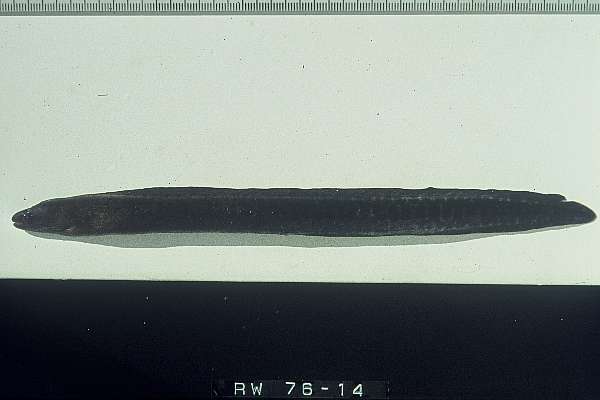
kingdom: Animalia
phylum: Chordata
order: Anguilliformes
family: Muraenidae
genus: Gymnothorax
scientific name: Gymnothorax buroensis
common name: Latticetail moray
